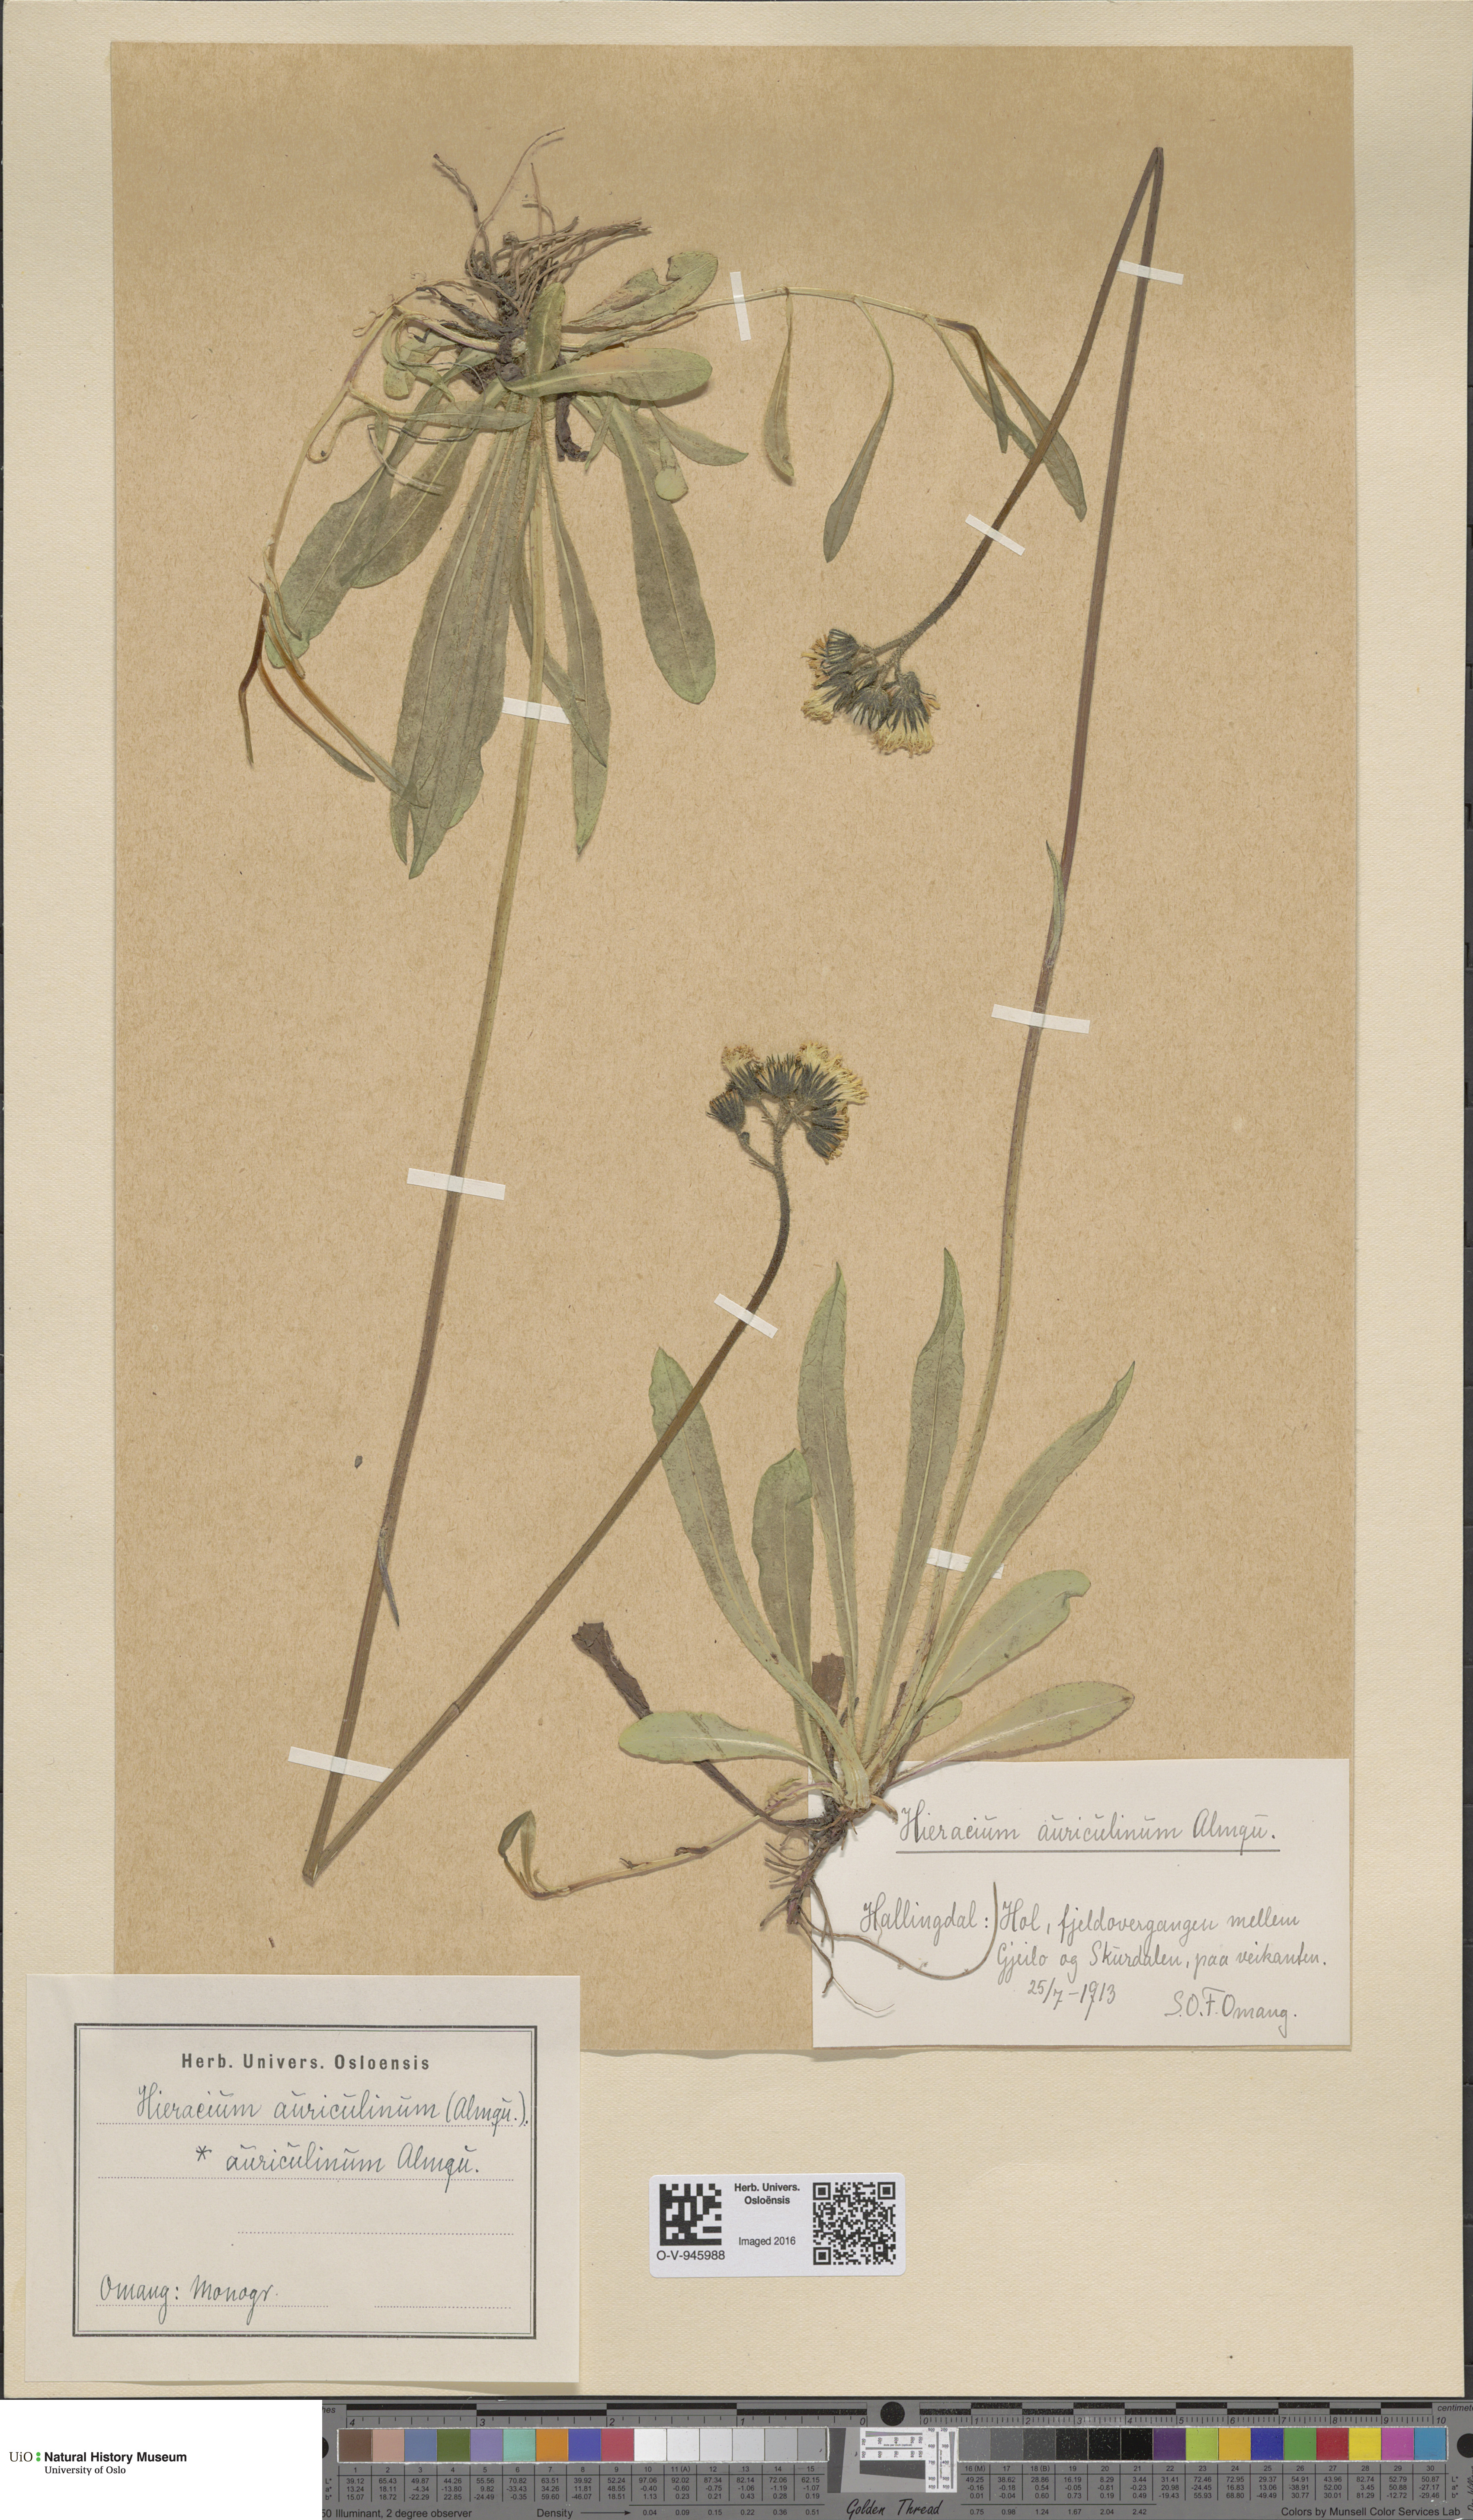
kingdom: Plantae
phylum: Tracheophyta
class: Magnoliopsida
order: Asterales
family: Asteraceae
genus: Pilosella
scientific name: Pilosella dubia
